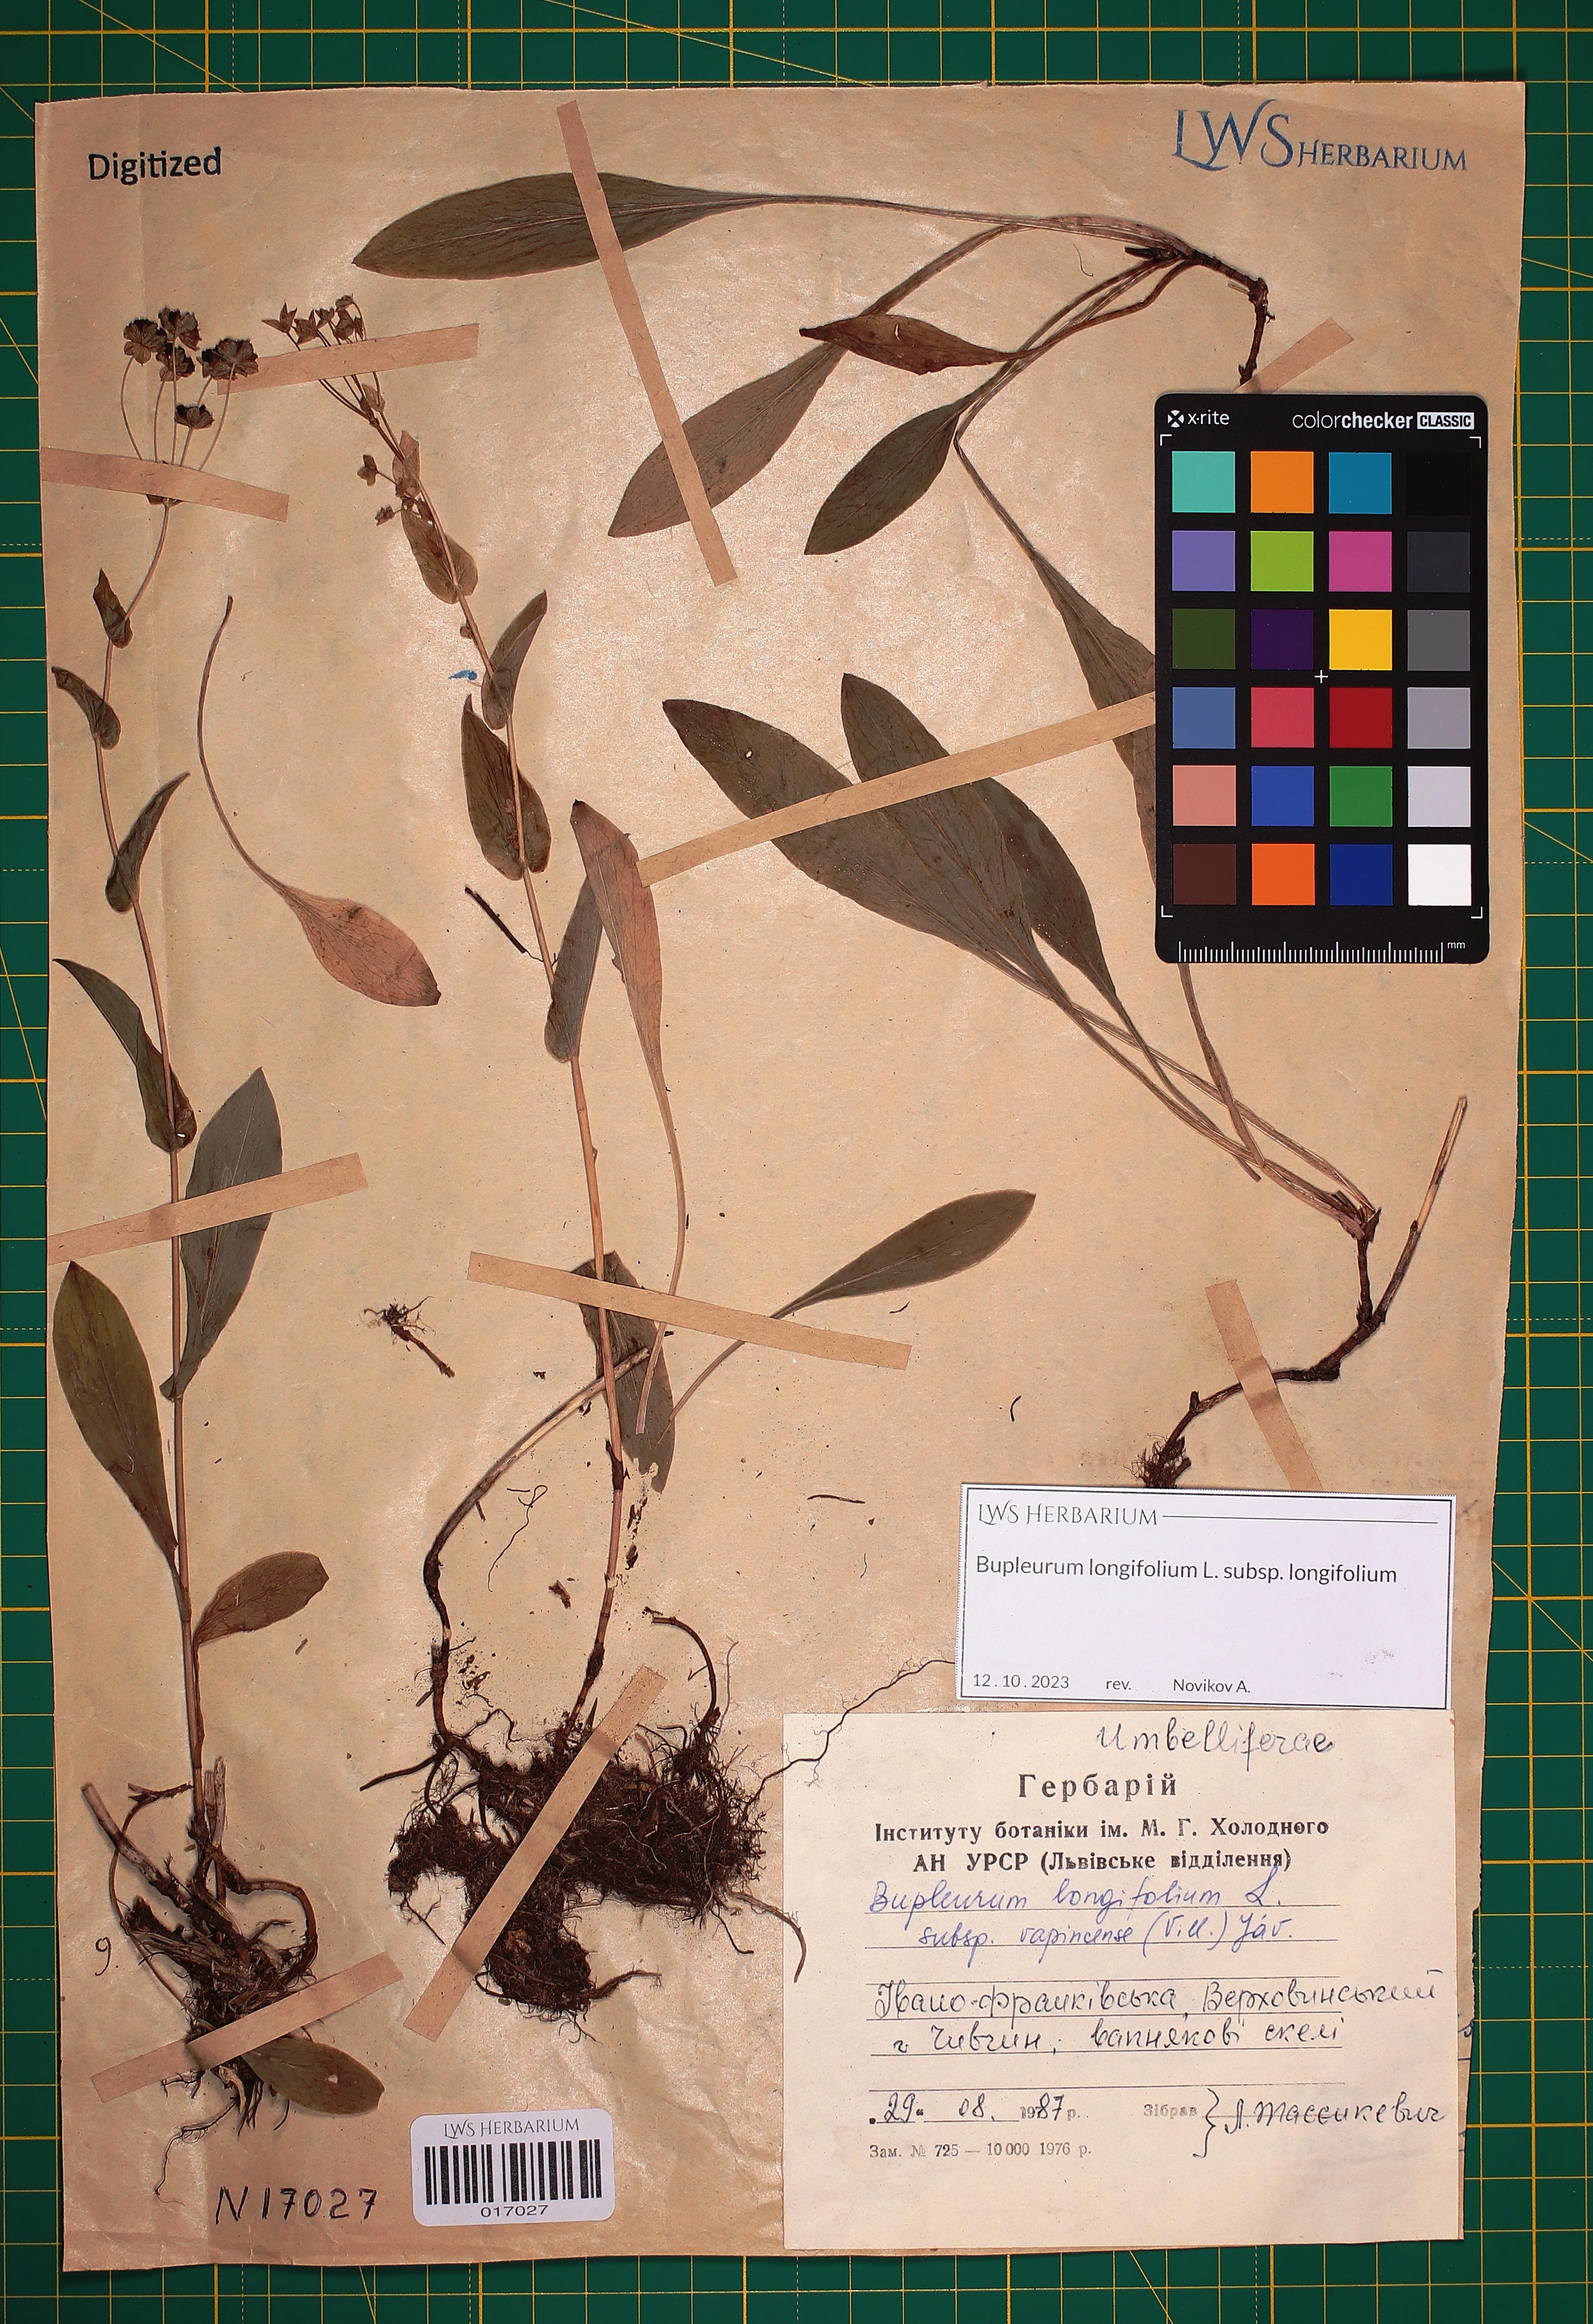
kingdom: Plantae
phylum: Tracheophyta
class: Magnoliopsida
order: Apiales
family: Apiaceae
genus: Bupleurum
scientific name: Bupleurum longifolium
